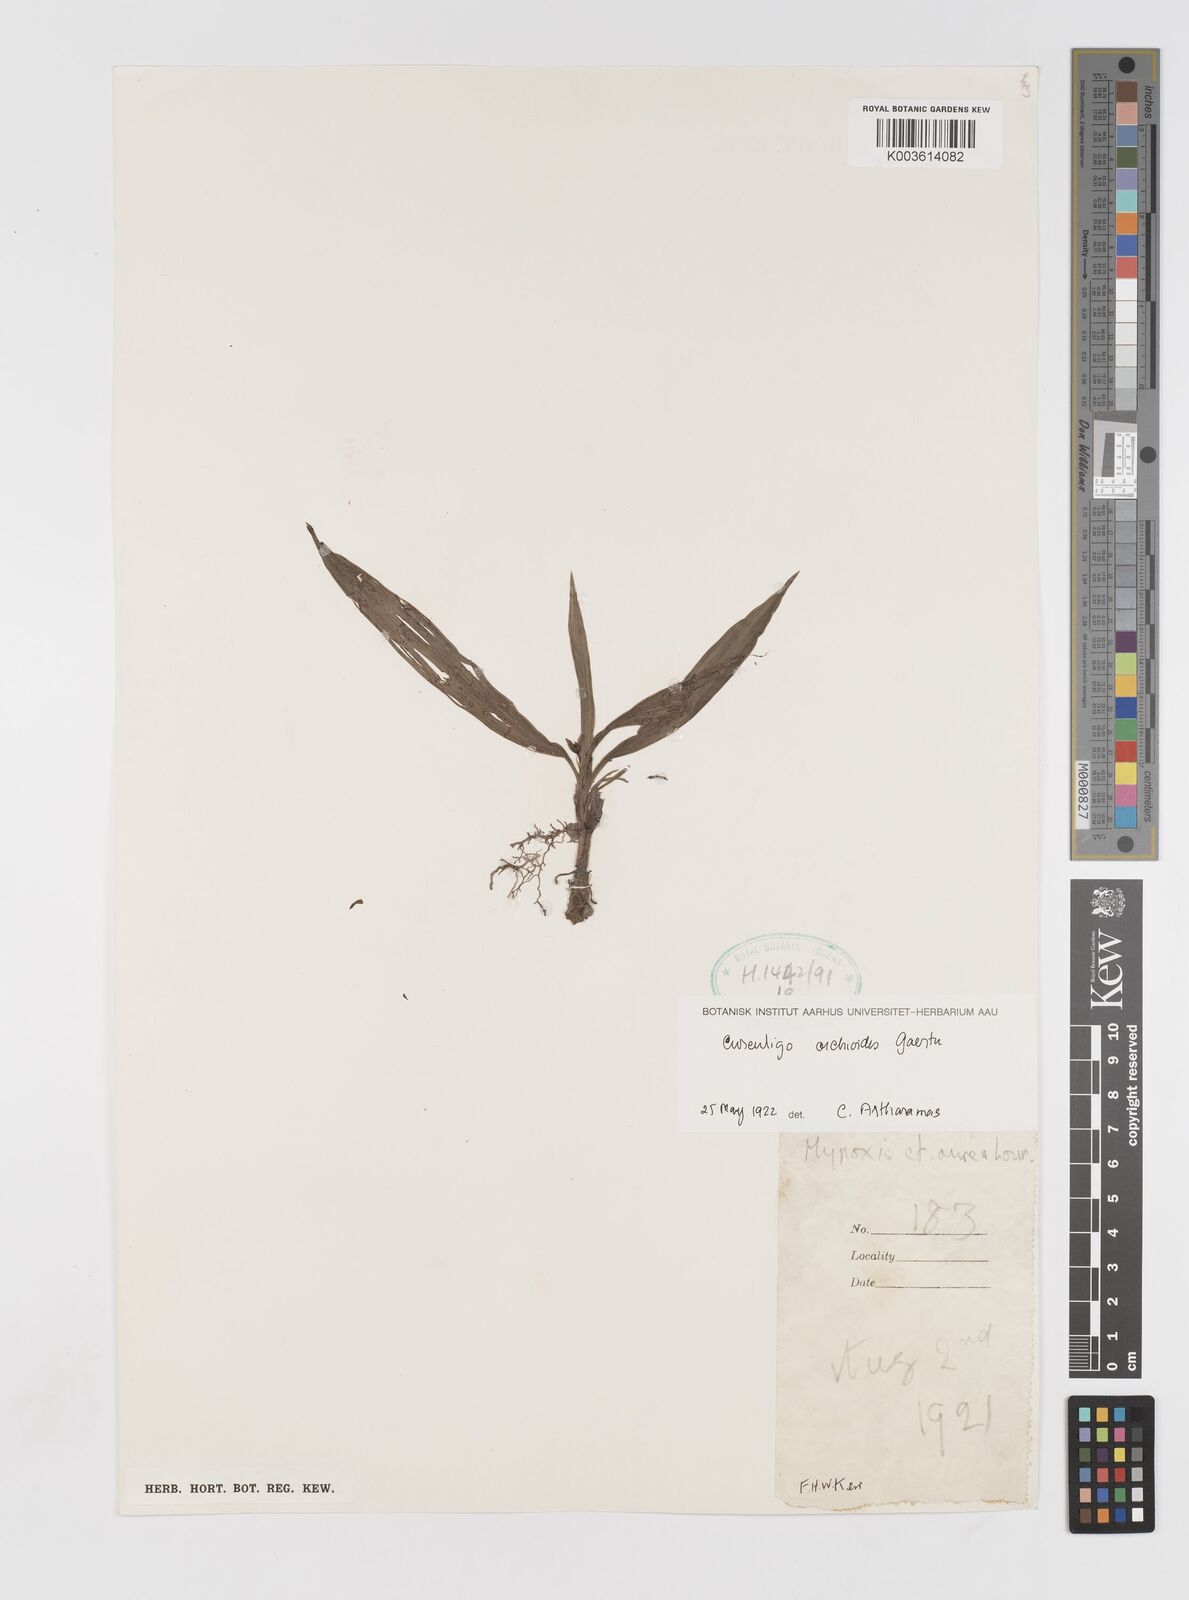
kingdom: Plantae
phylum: Tracheophyta
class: Liliopsida
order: Asparagales
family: Hypoxidaceae
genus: Curculigo
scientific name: Curculigo orchioides
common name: Golden eye-grass
